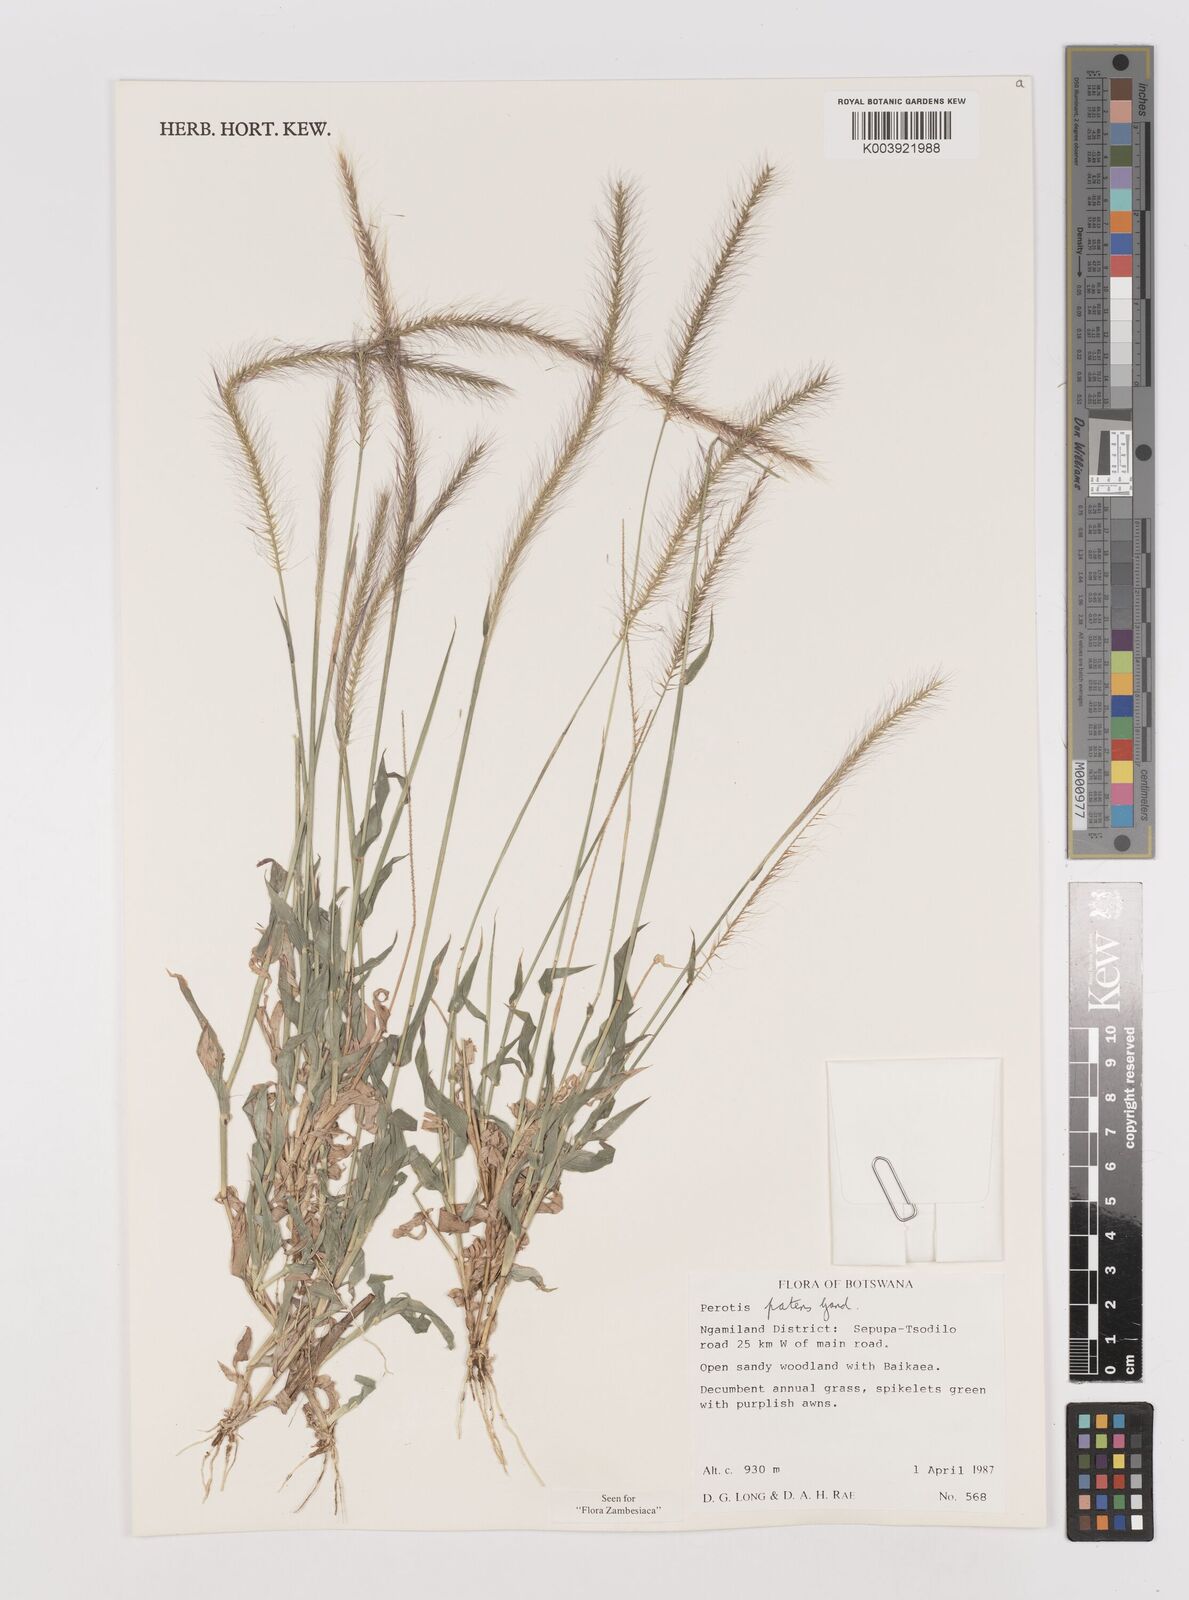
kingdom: Plantae
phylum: Tracheophyta
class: Liliopsida
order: Poales
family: Poaceae
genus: Perotis
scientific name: Perotis patens
